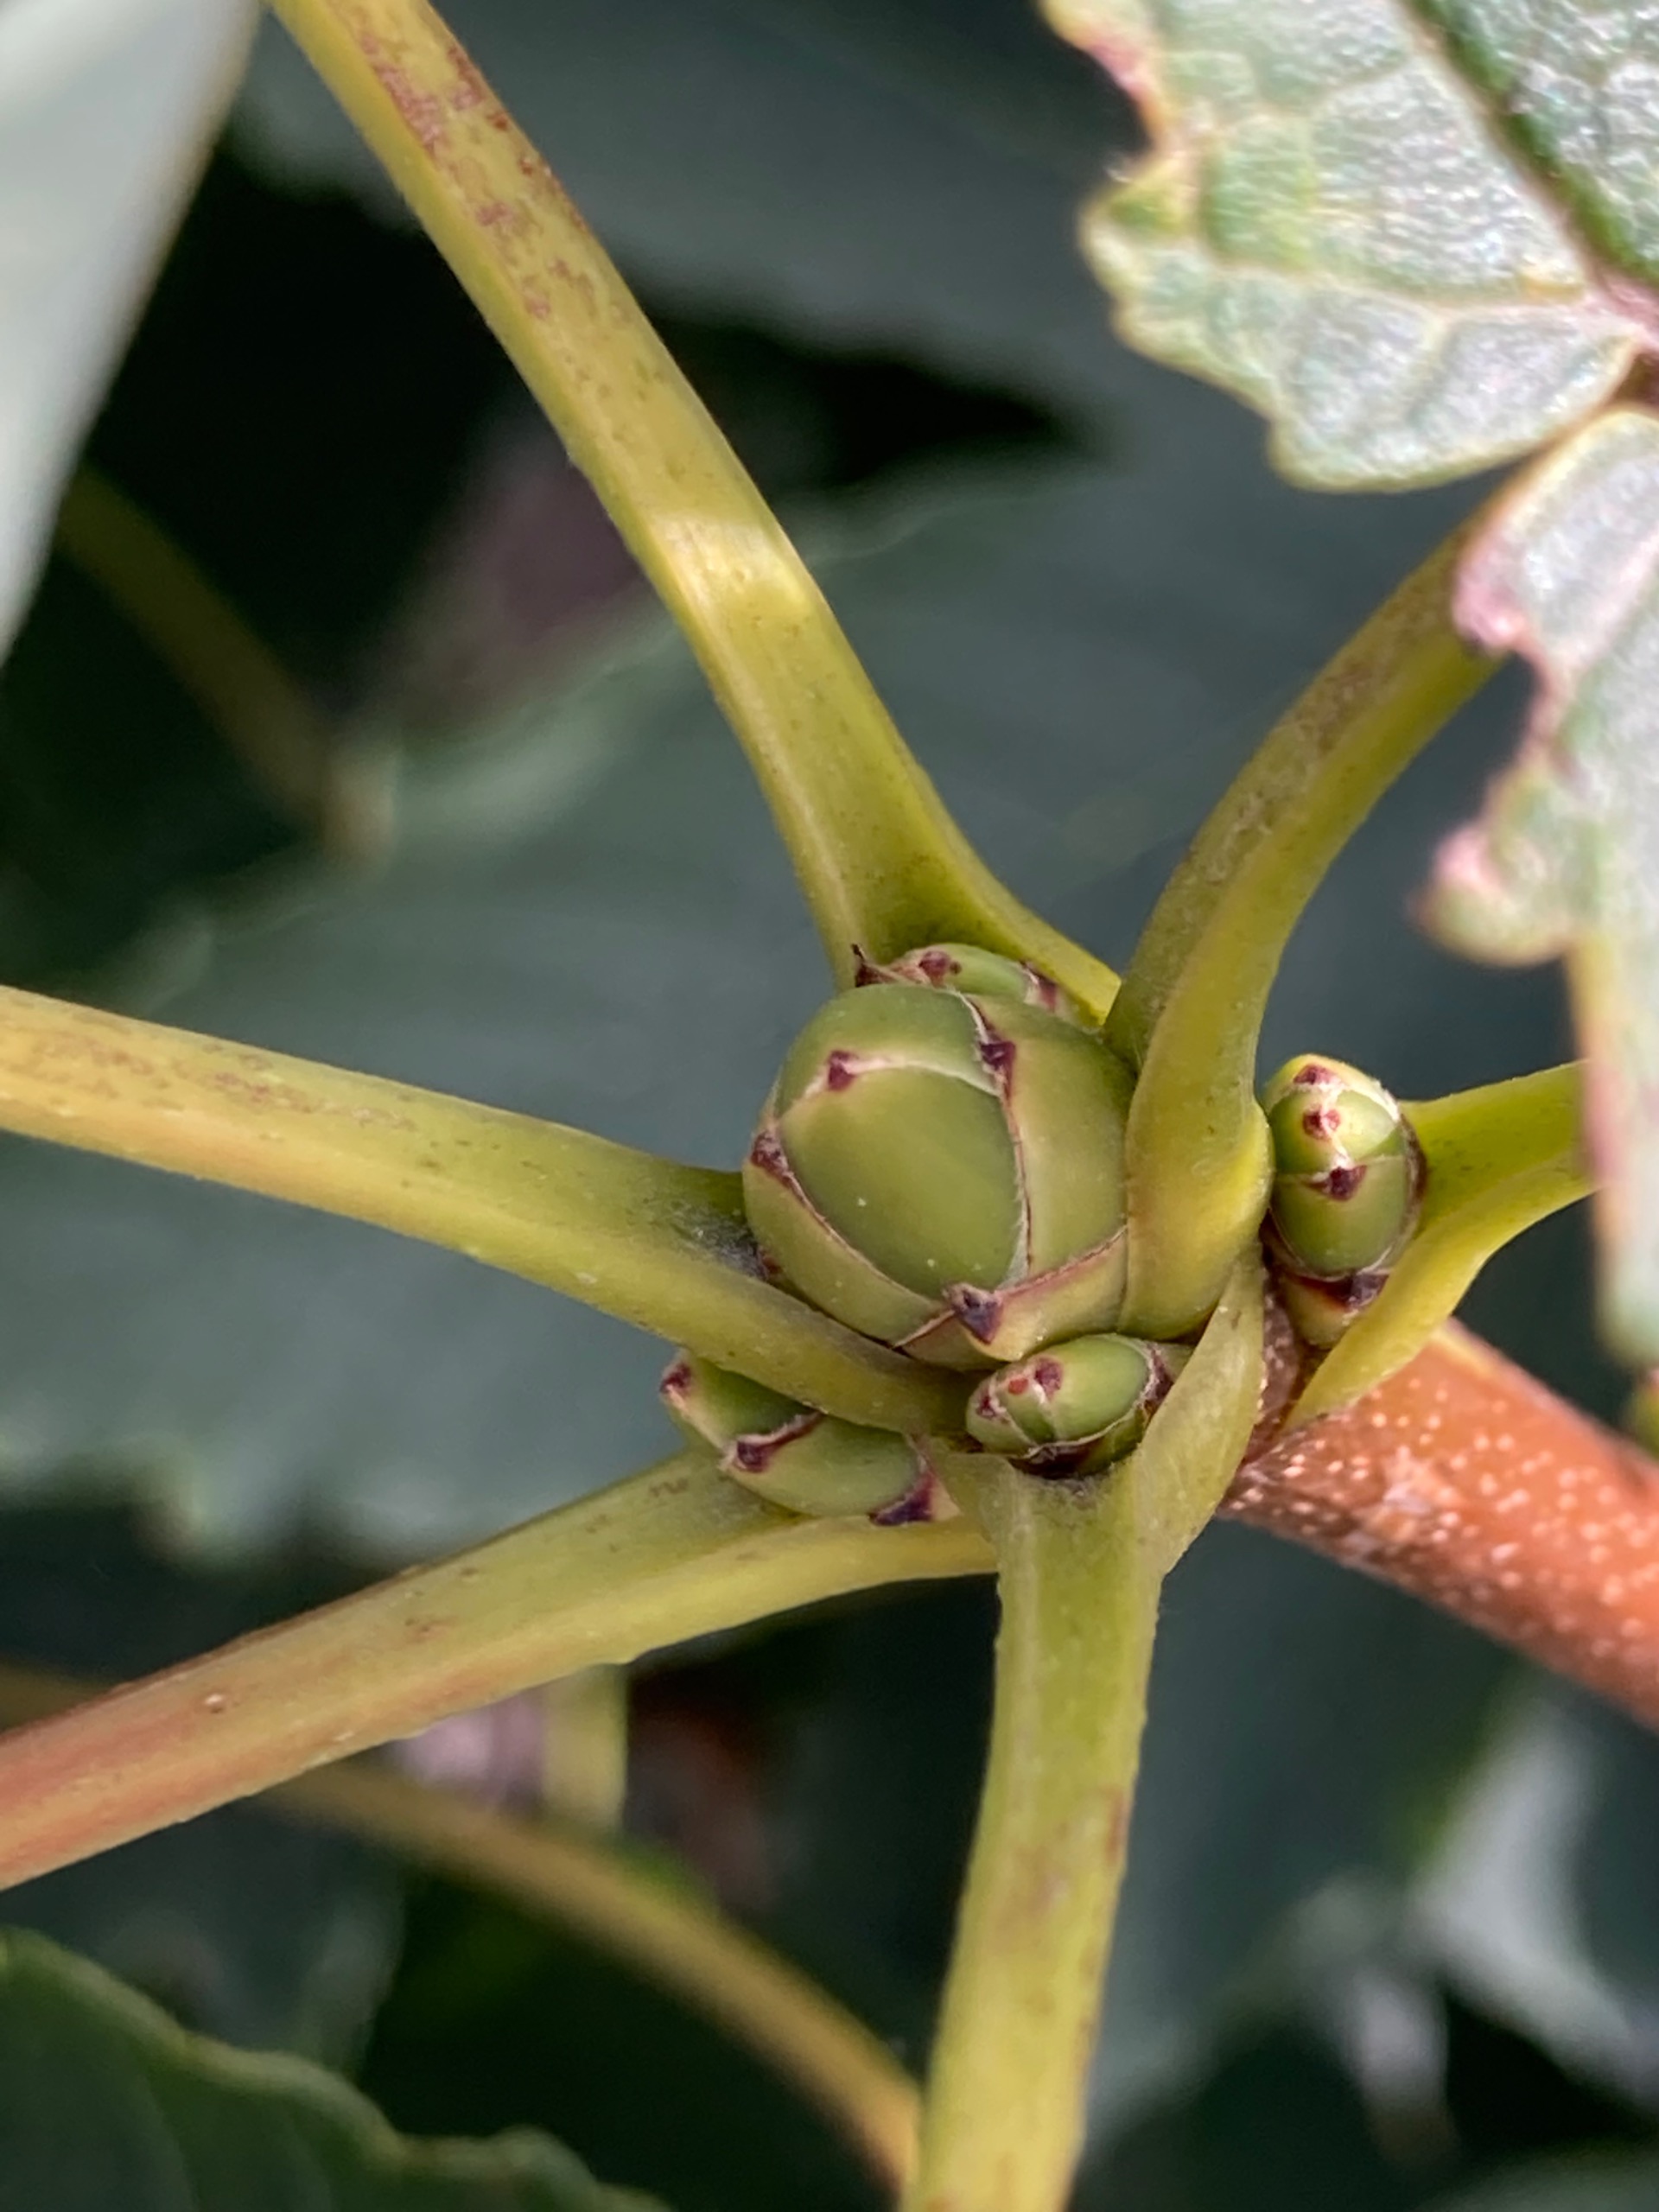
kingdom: Plantae
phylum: Tracheophyta
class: Magnoliopsida
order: Sapindales
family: Sapindaceae
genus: Acer
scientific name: Acer pseudoplatanus
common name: Ahorn
